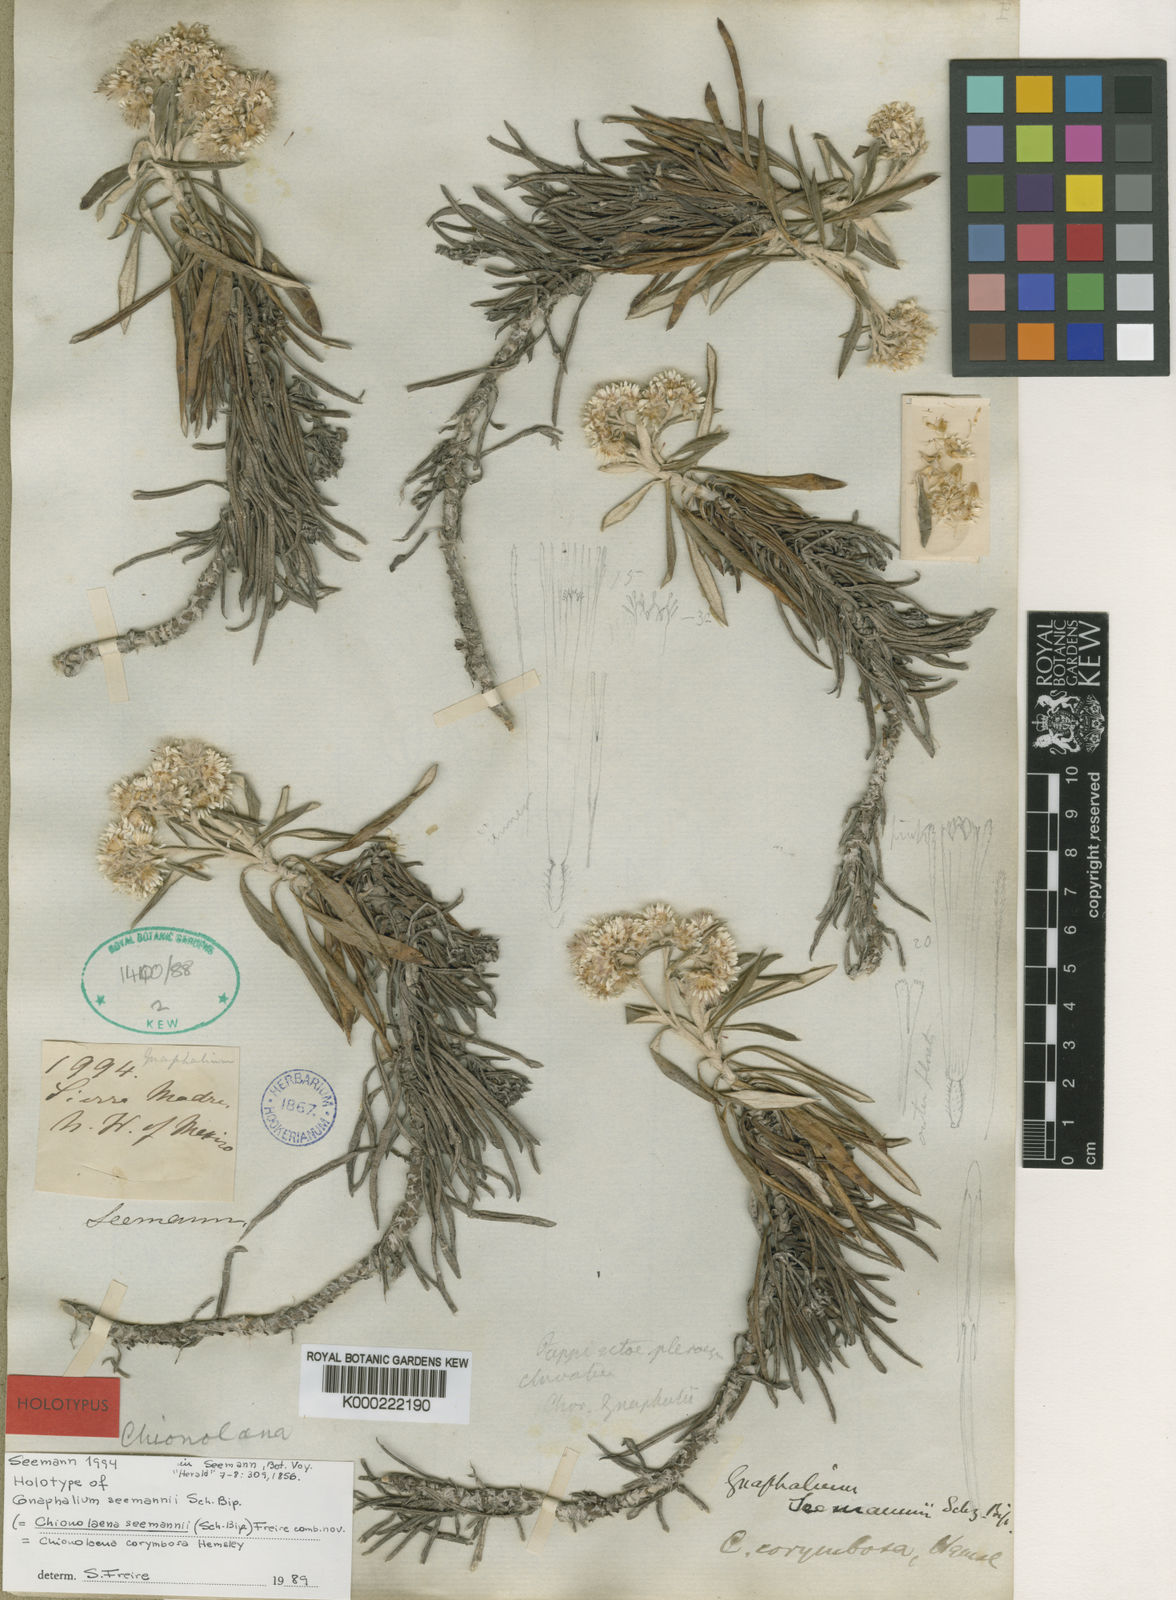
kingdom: Plantae
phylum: Tracheophyta
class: Magnoliopsida
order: Asterales
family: Asteraceae
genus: Gnaphaliothamnus
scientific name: Gnaphaliothamnus salicifolius
